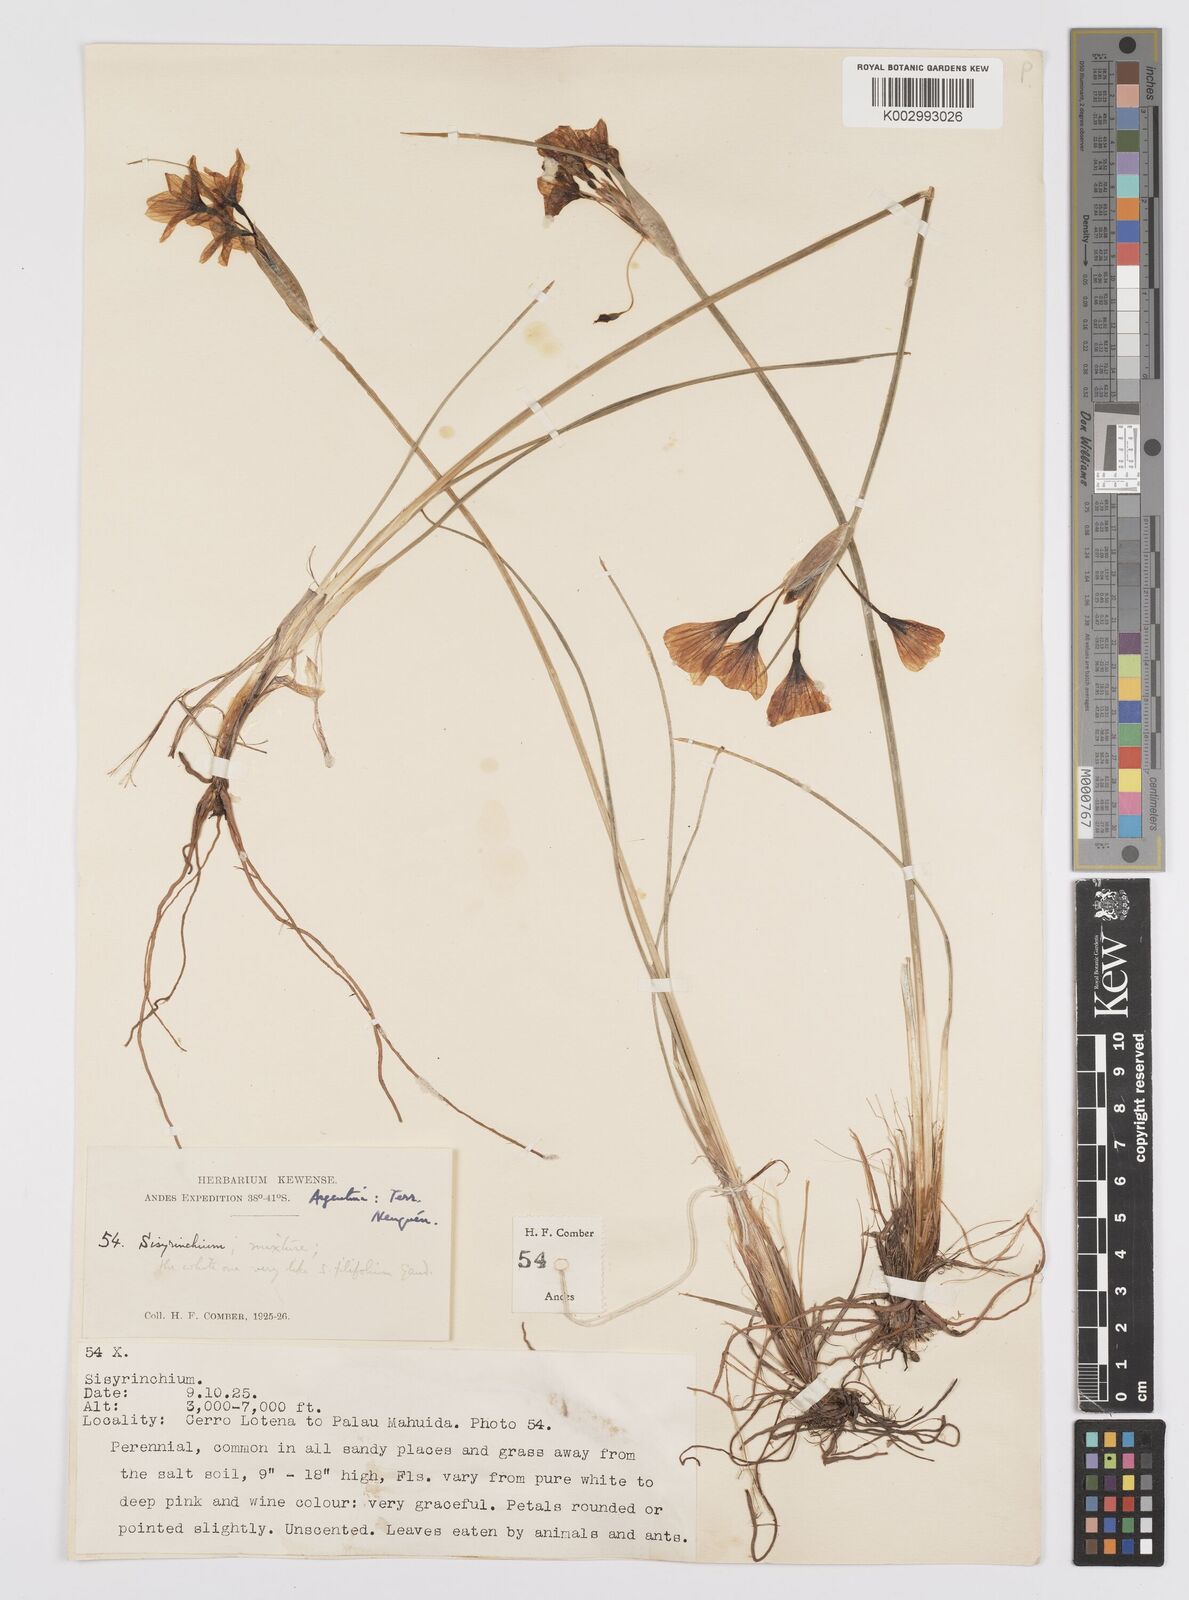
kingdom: Plantae
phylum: Tracheophyta
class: Liliopsida
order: Asparagales
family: Iridaceae
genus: Sisyrinchium
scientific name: Sisyrinchium
